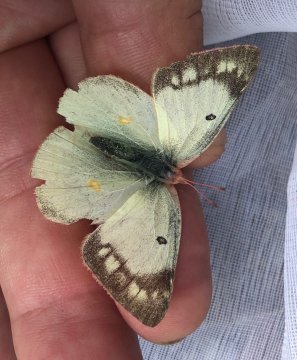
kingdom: Animalia
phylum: Arthropoda
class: Insecta
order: Lepidoptera
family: Pieridae
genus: Colias
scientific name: Colias philodice
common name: Clouded Sulphur
